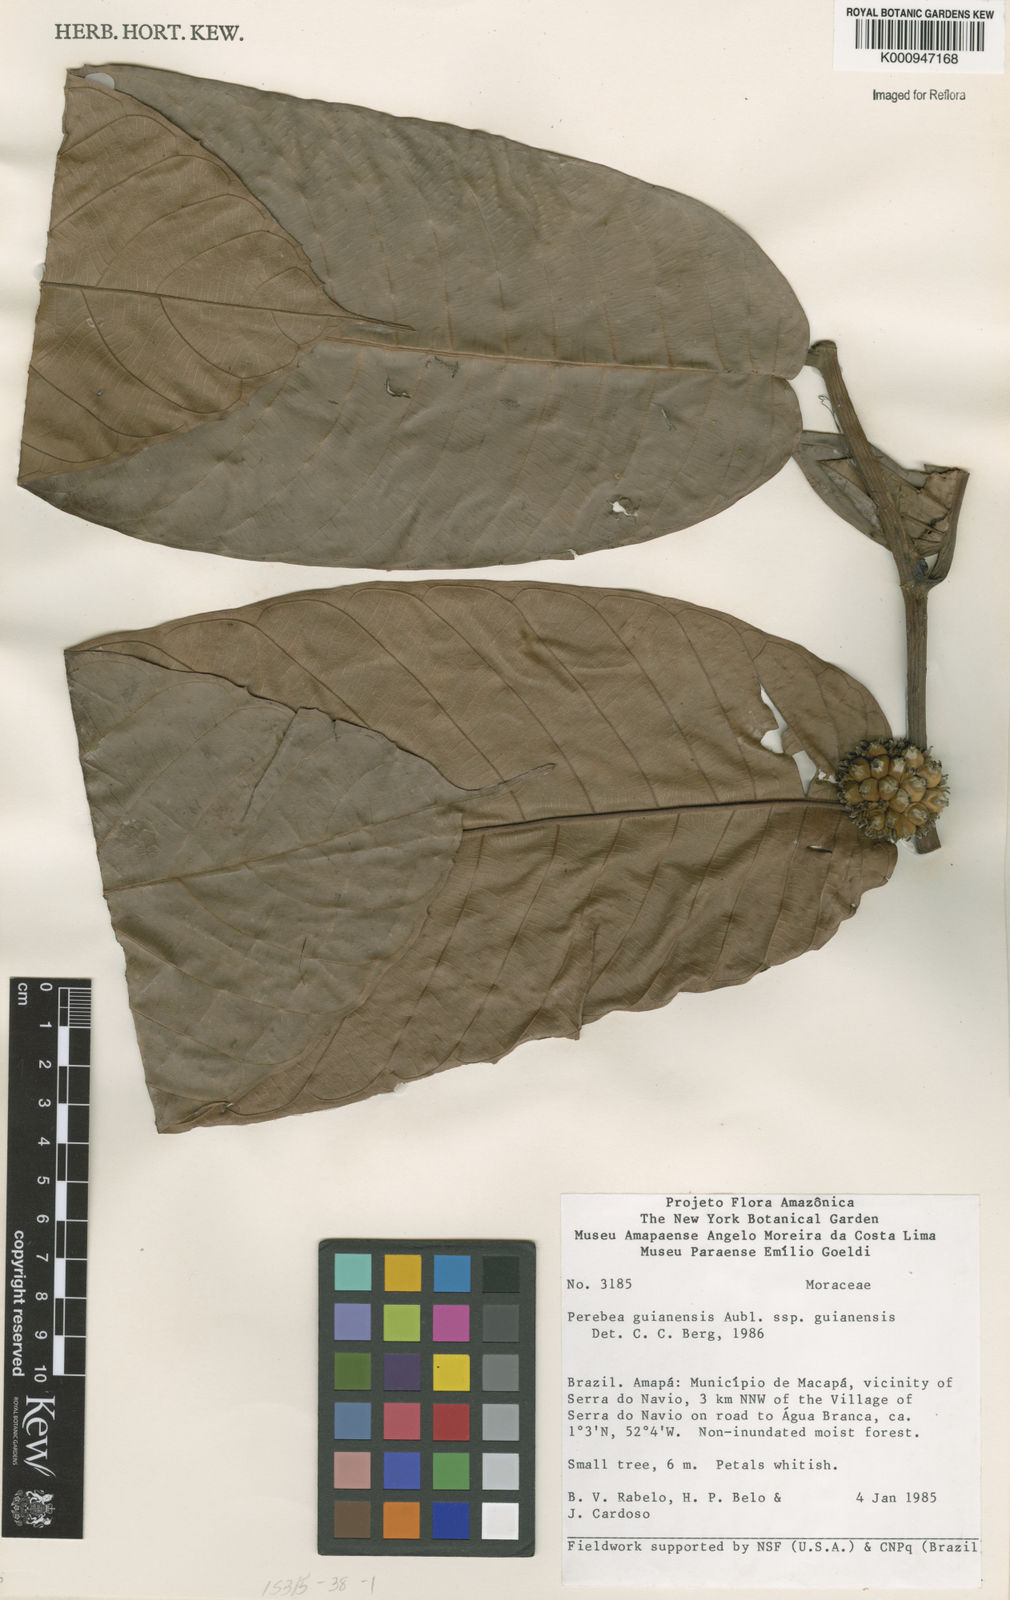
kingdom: Plantae
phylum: Tracheophyta
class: Magnoliopsida
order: Rosales
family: Moraceae
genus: Perebea
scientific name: Perebea
